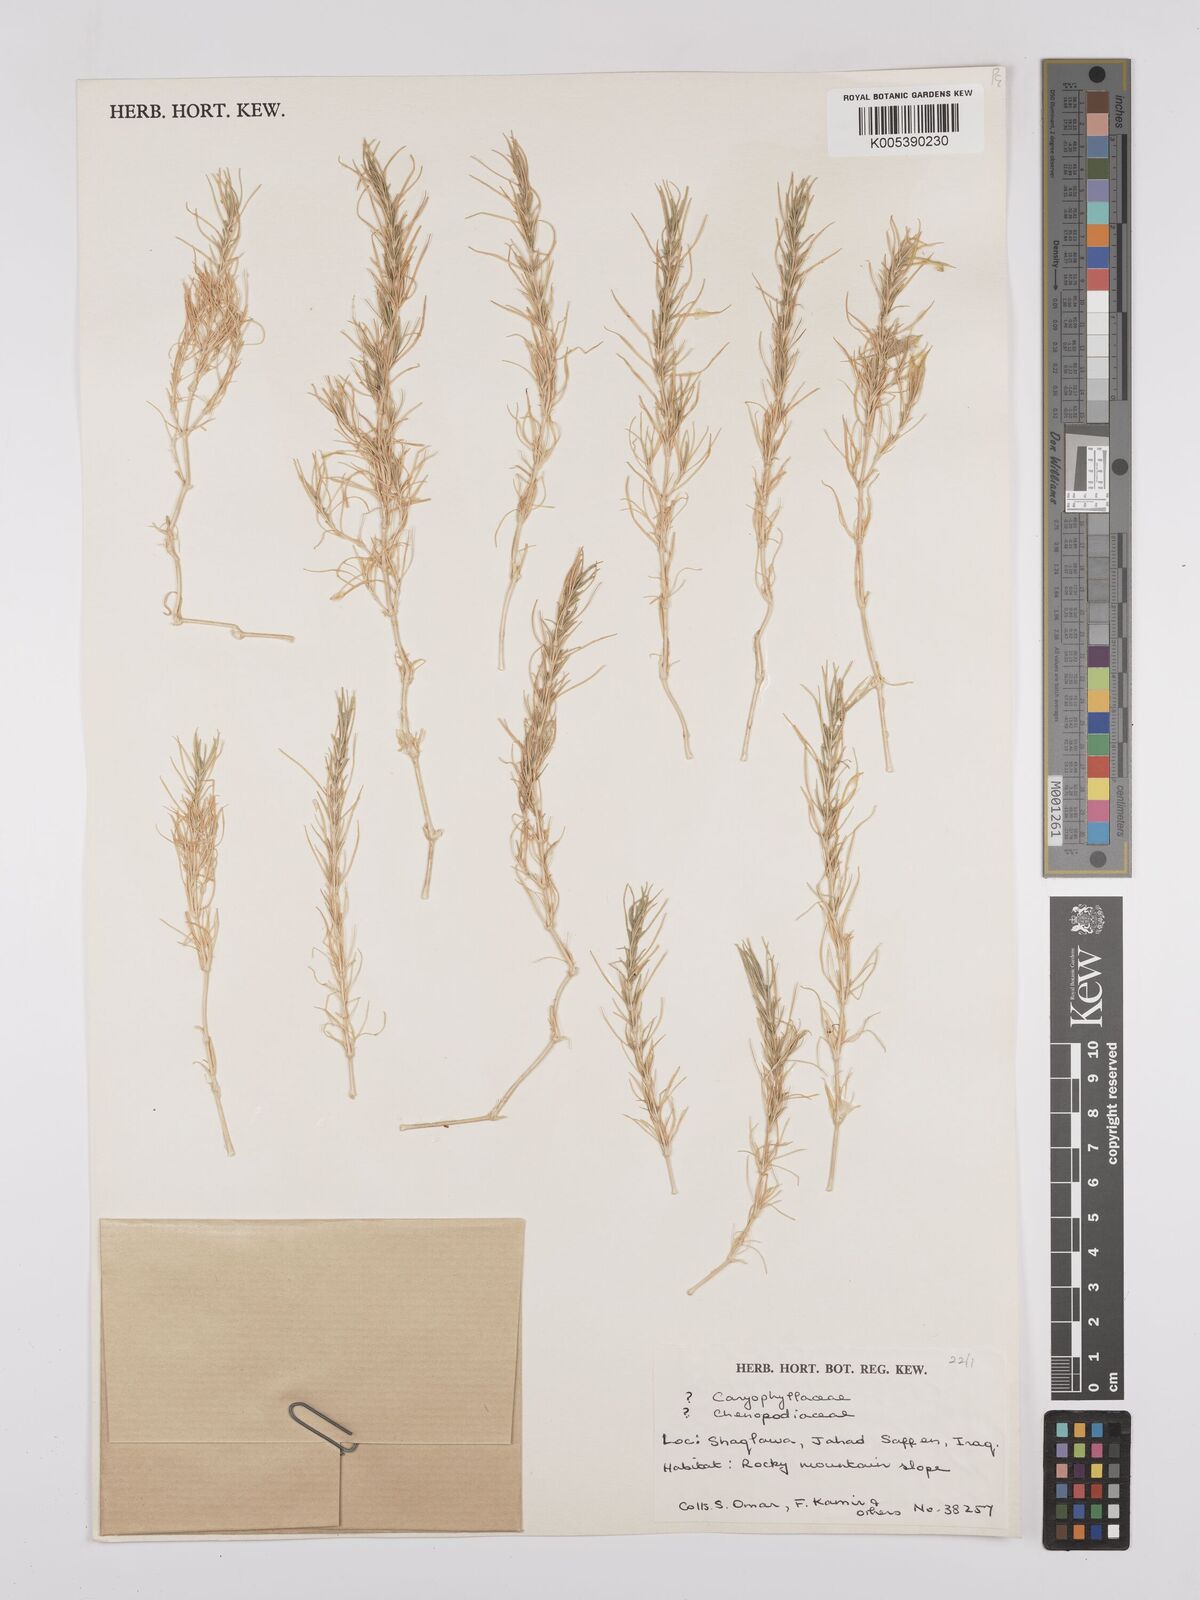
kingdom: Plantae
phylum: Tracheophyta
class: Magnoliopsida
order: Caryophyllales
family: Caryophyllaceae
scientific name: Caryophyllaceae
